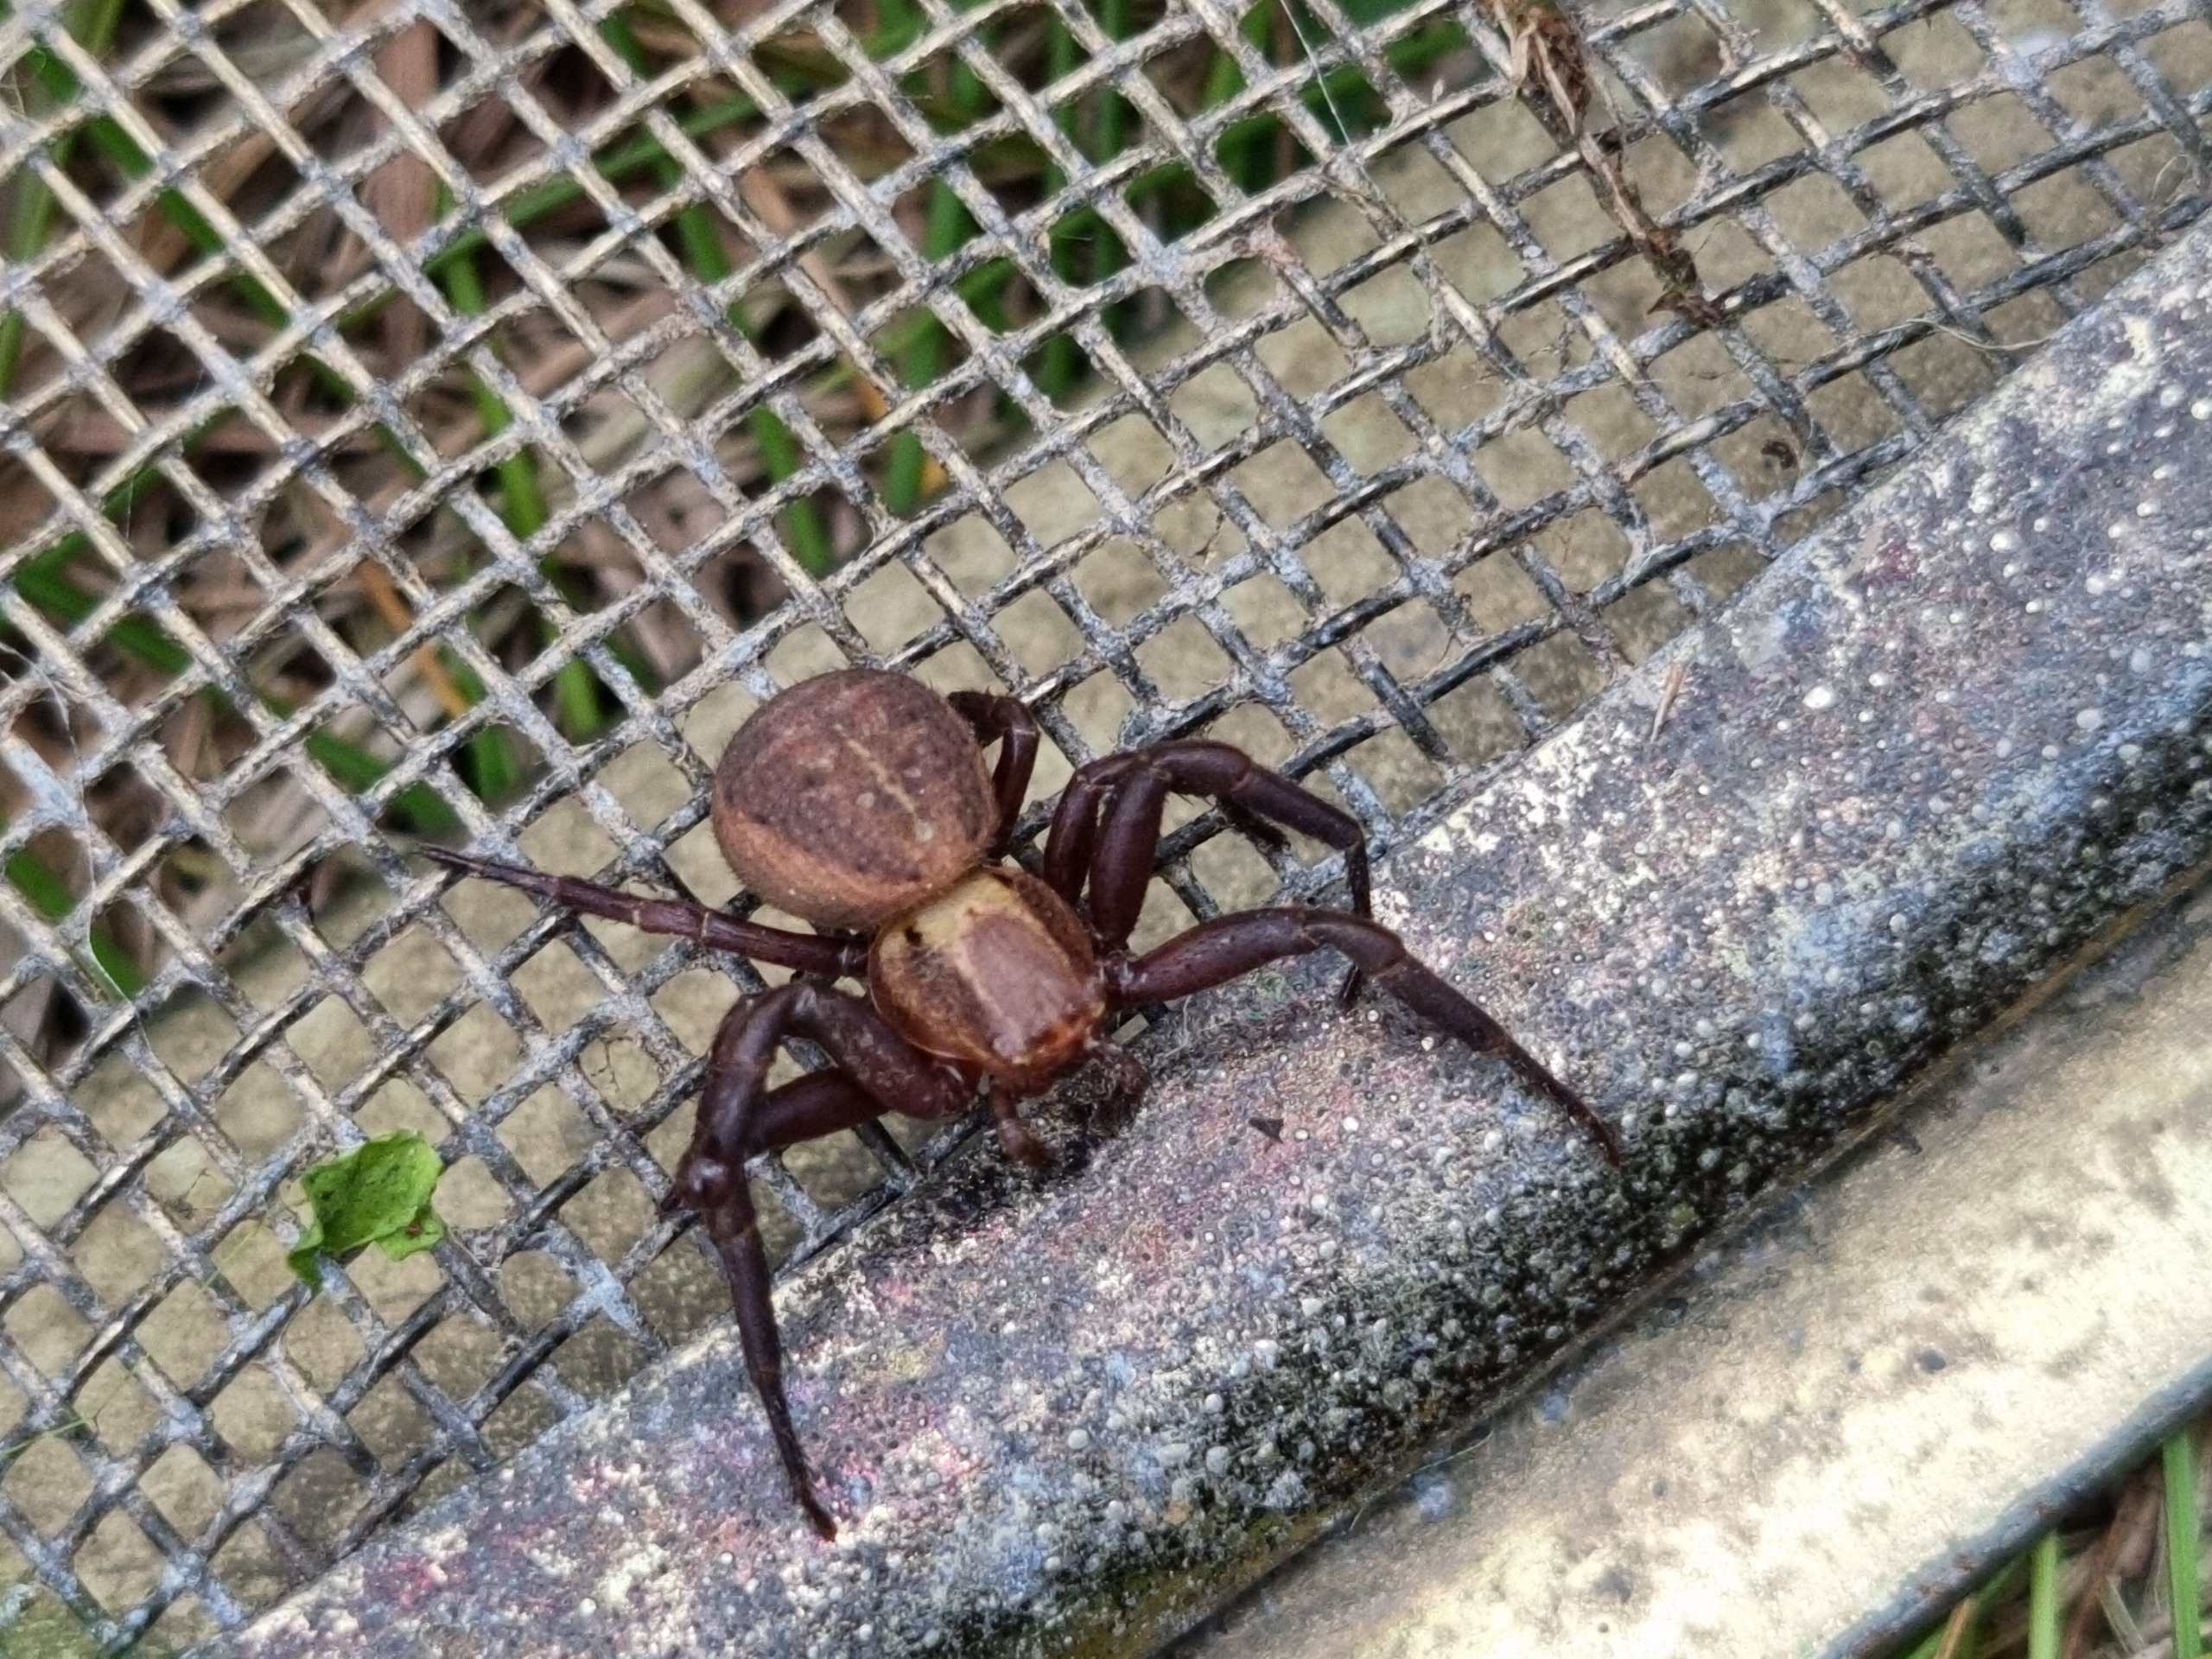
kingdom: Animalia
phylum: Arthropoda
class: Arachnida
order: Araneae
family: Thomisidae
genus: Xysticus
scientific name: Xysticus bifasciatus
